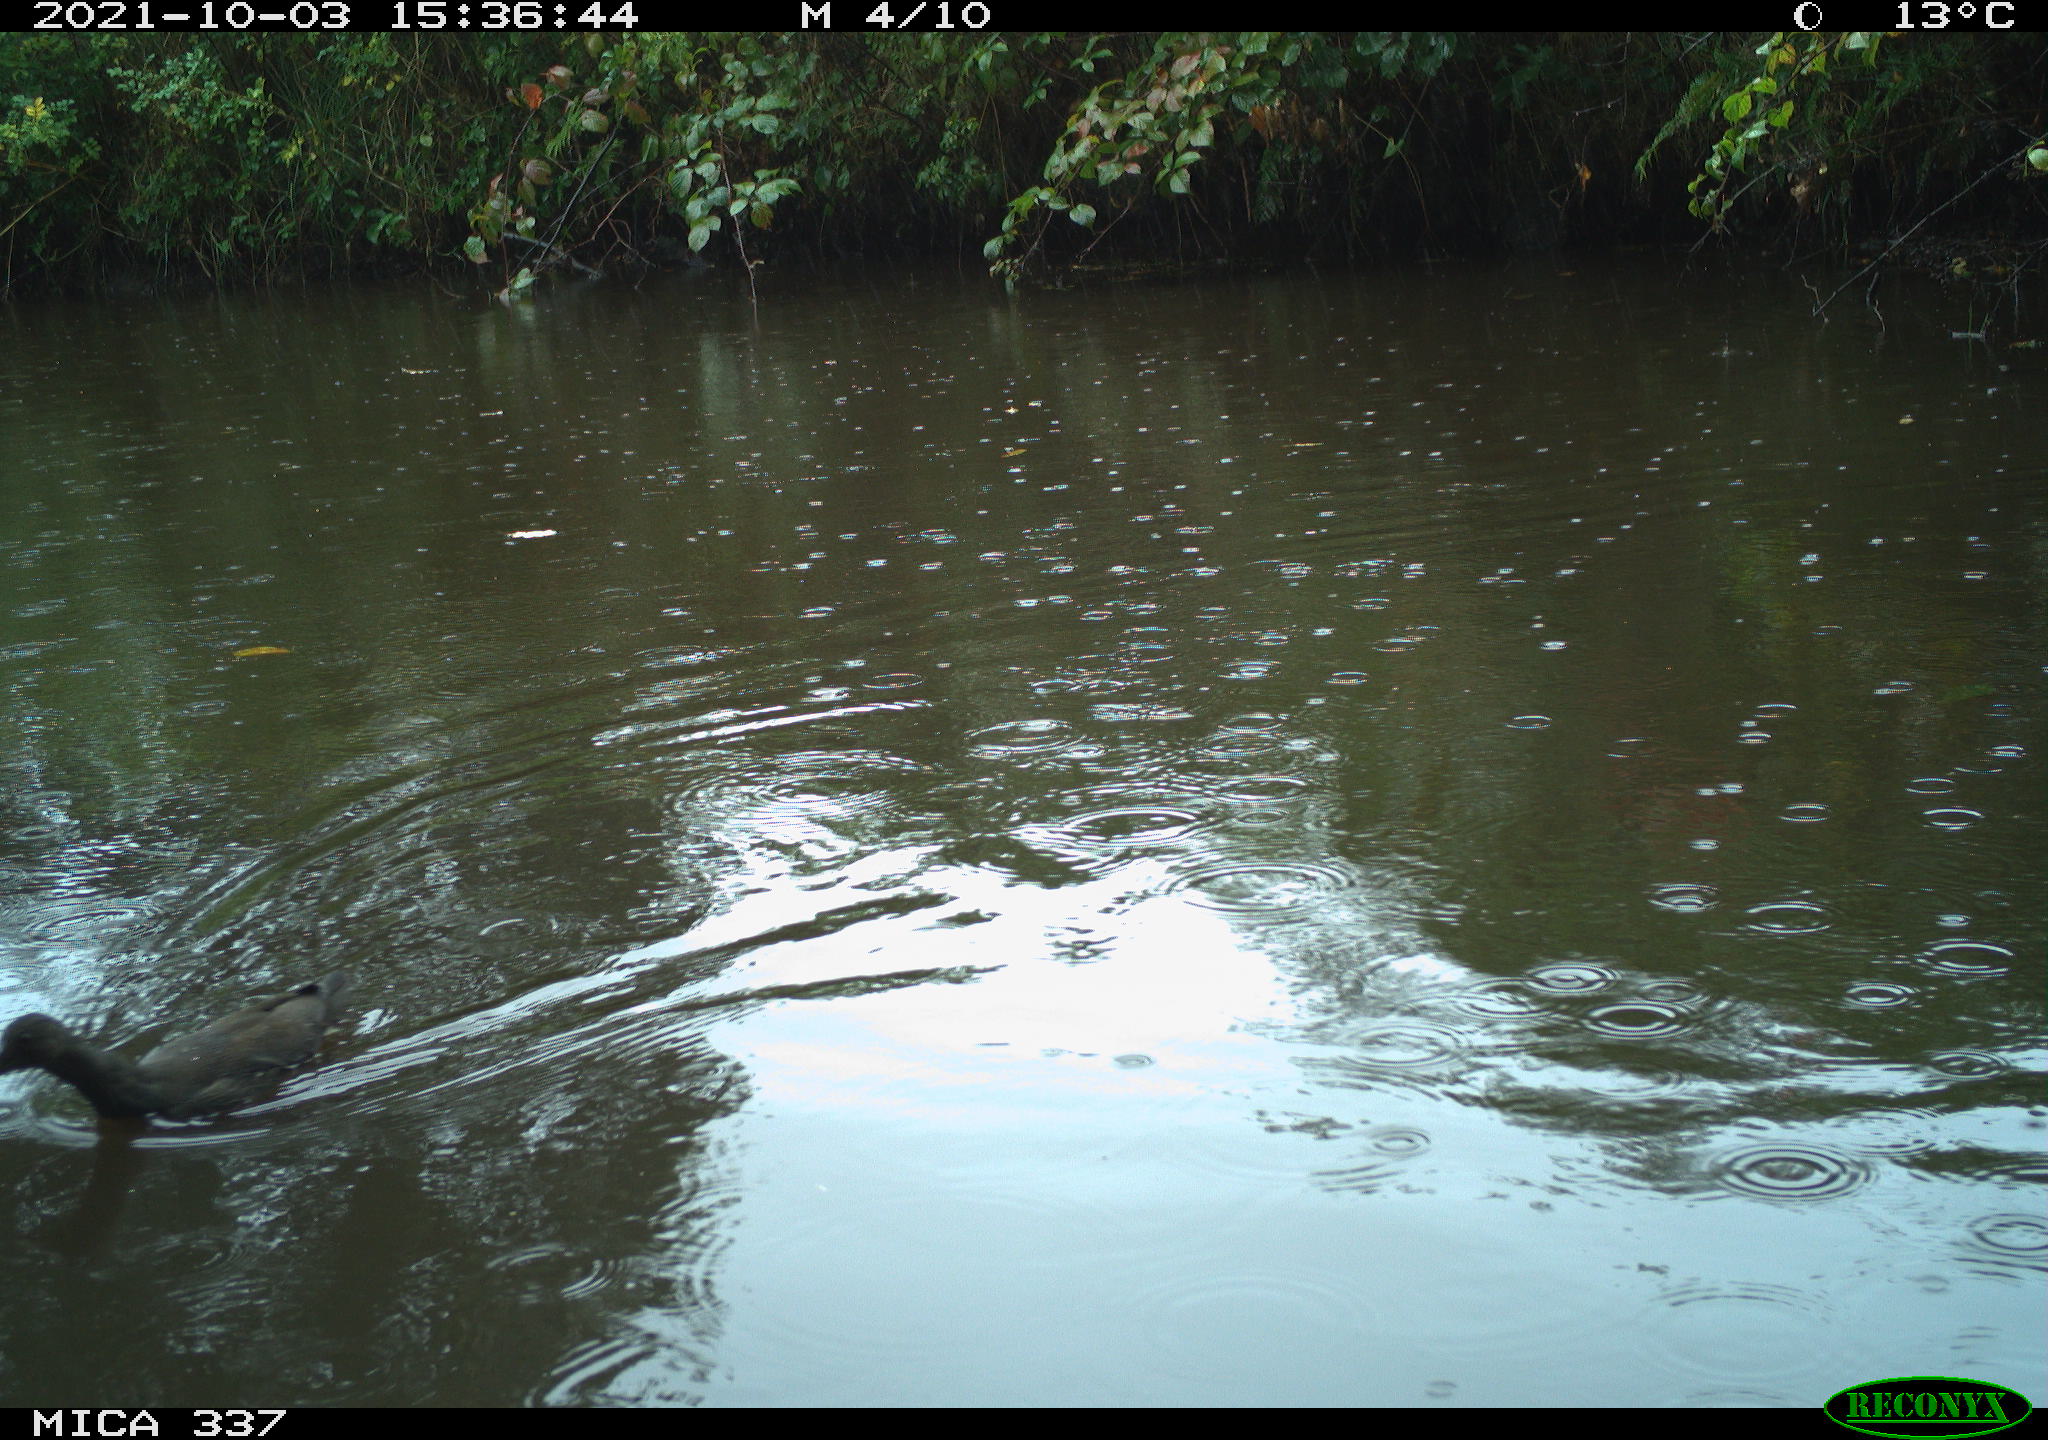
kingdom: Animalia
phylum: Chordata
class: Aves
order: Gruiformes
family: Rallidae
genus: Gallinula
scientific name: Gallinula chloropus
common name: Common moorhen
